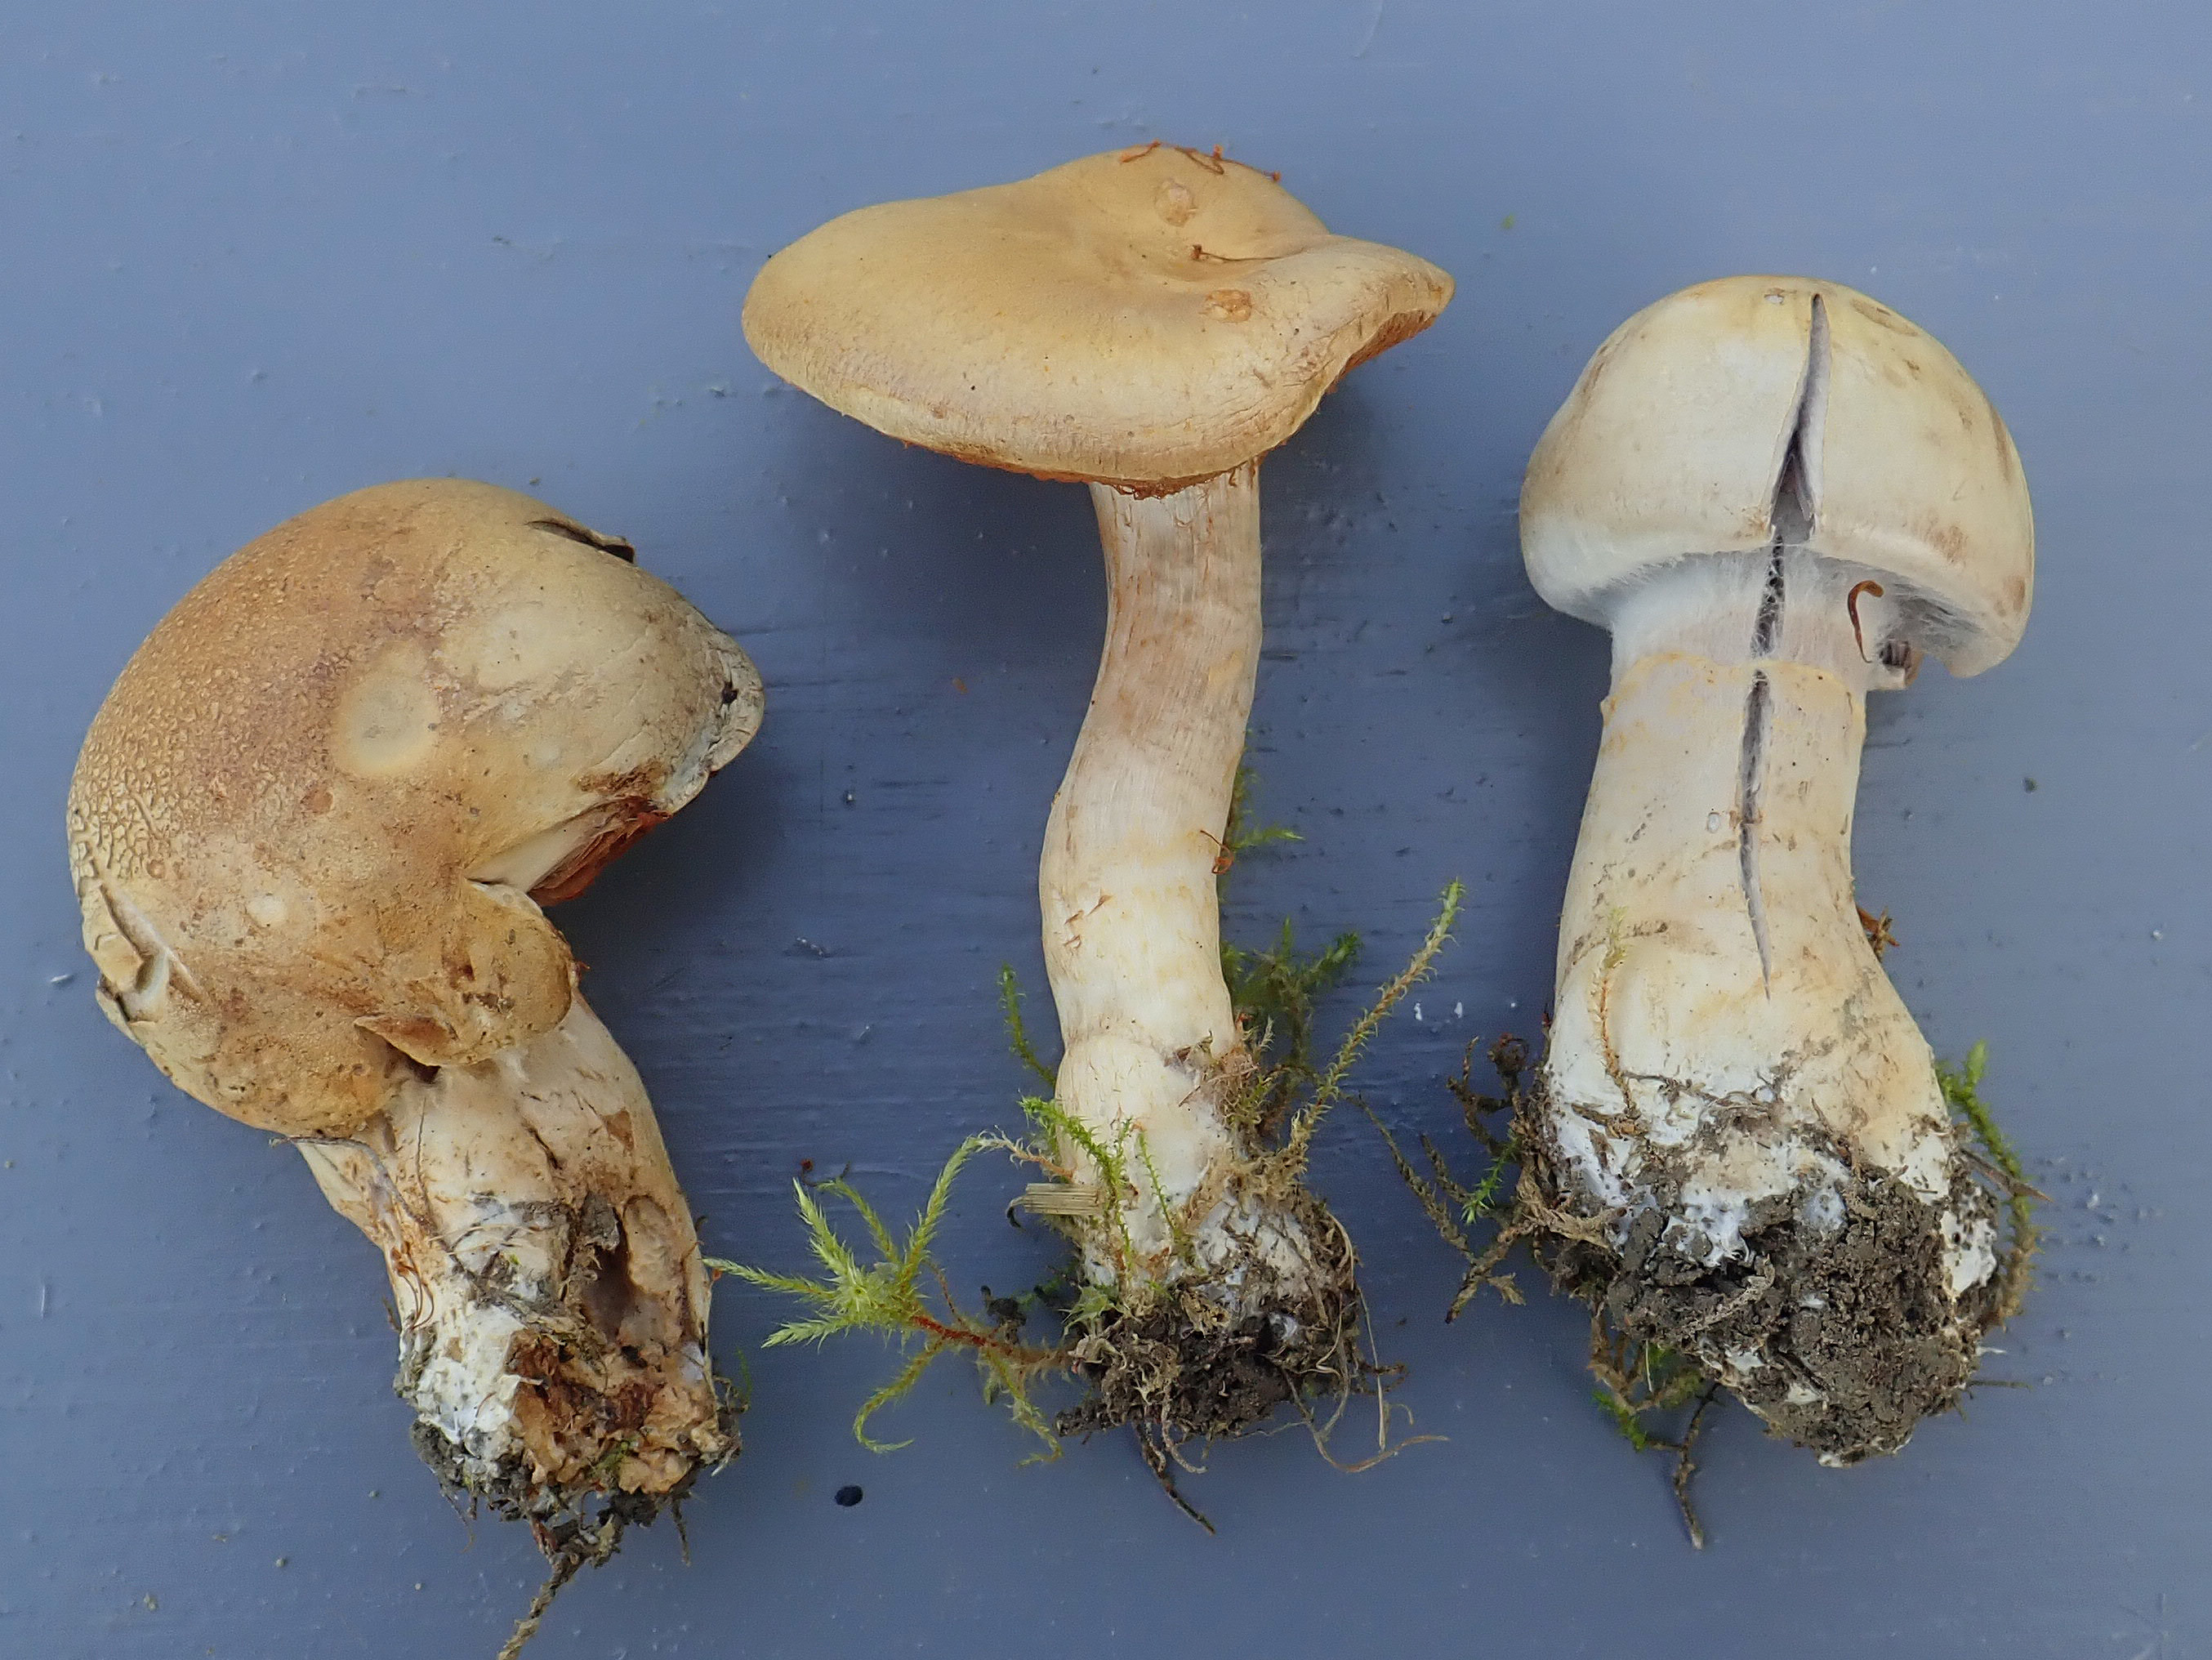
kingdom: Fungi
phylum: Basidiomycota
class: Agaricomycetes
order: Agaricales
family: Cortinariaceae
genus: Cortinarius
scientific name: Cortinarius xanthocephalus
